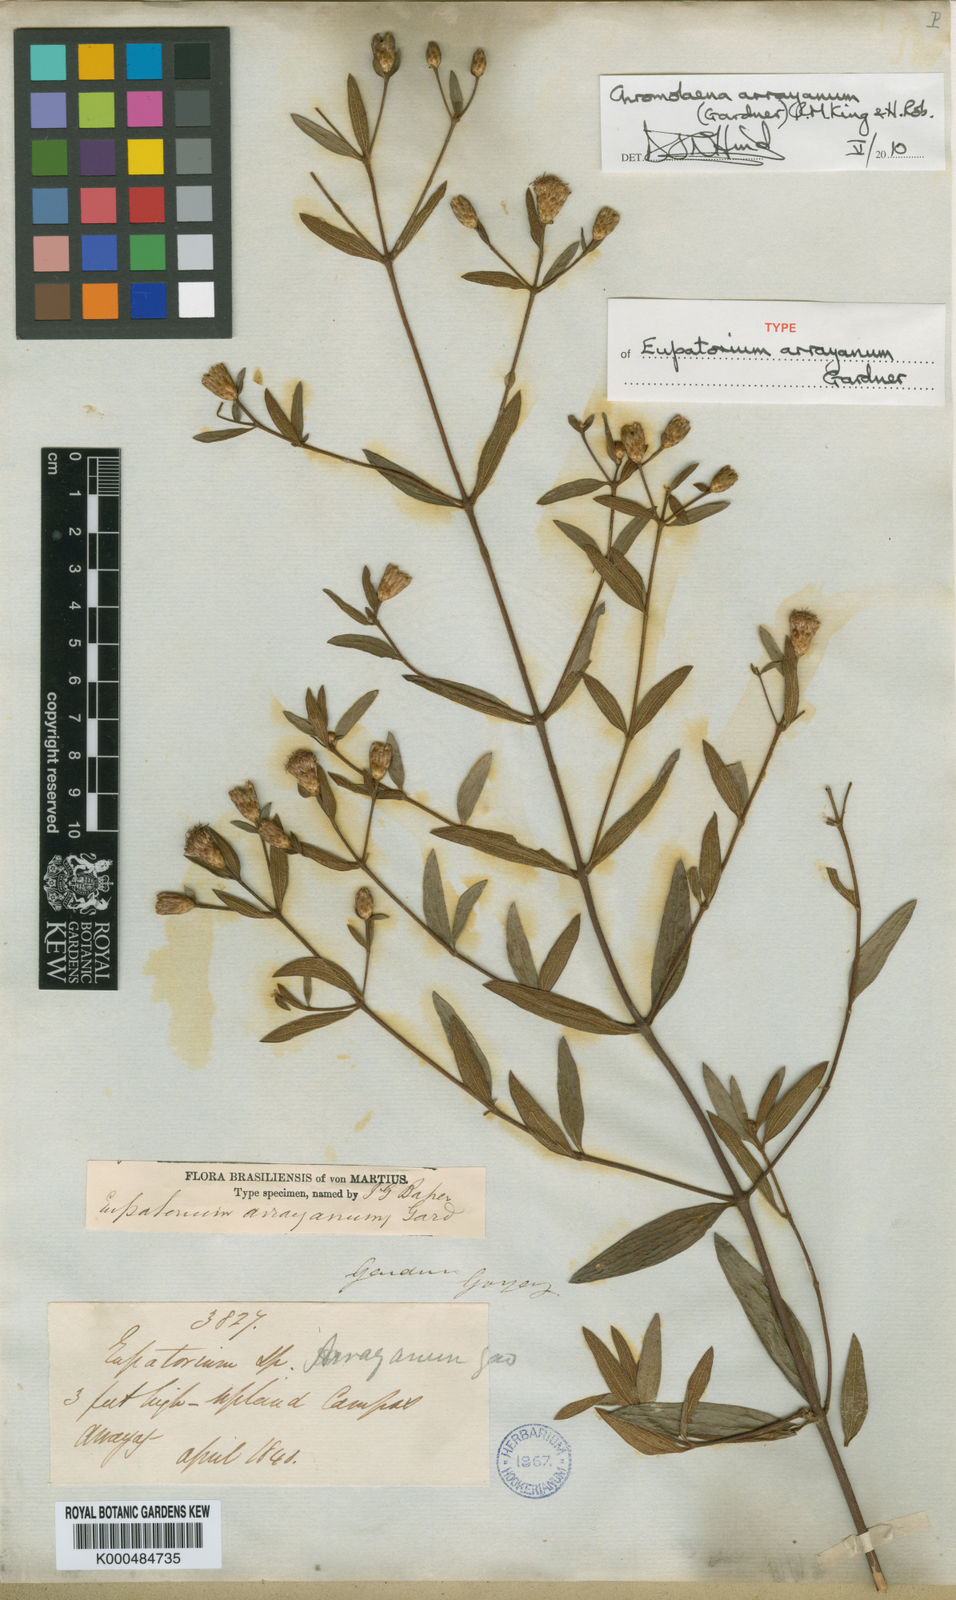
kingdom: Plantae
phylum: Tracheophyta
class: Magnoliopsida
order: Asterales
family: Asteraceae
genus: Chromolaena
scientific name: Chromolaena arrayana
